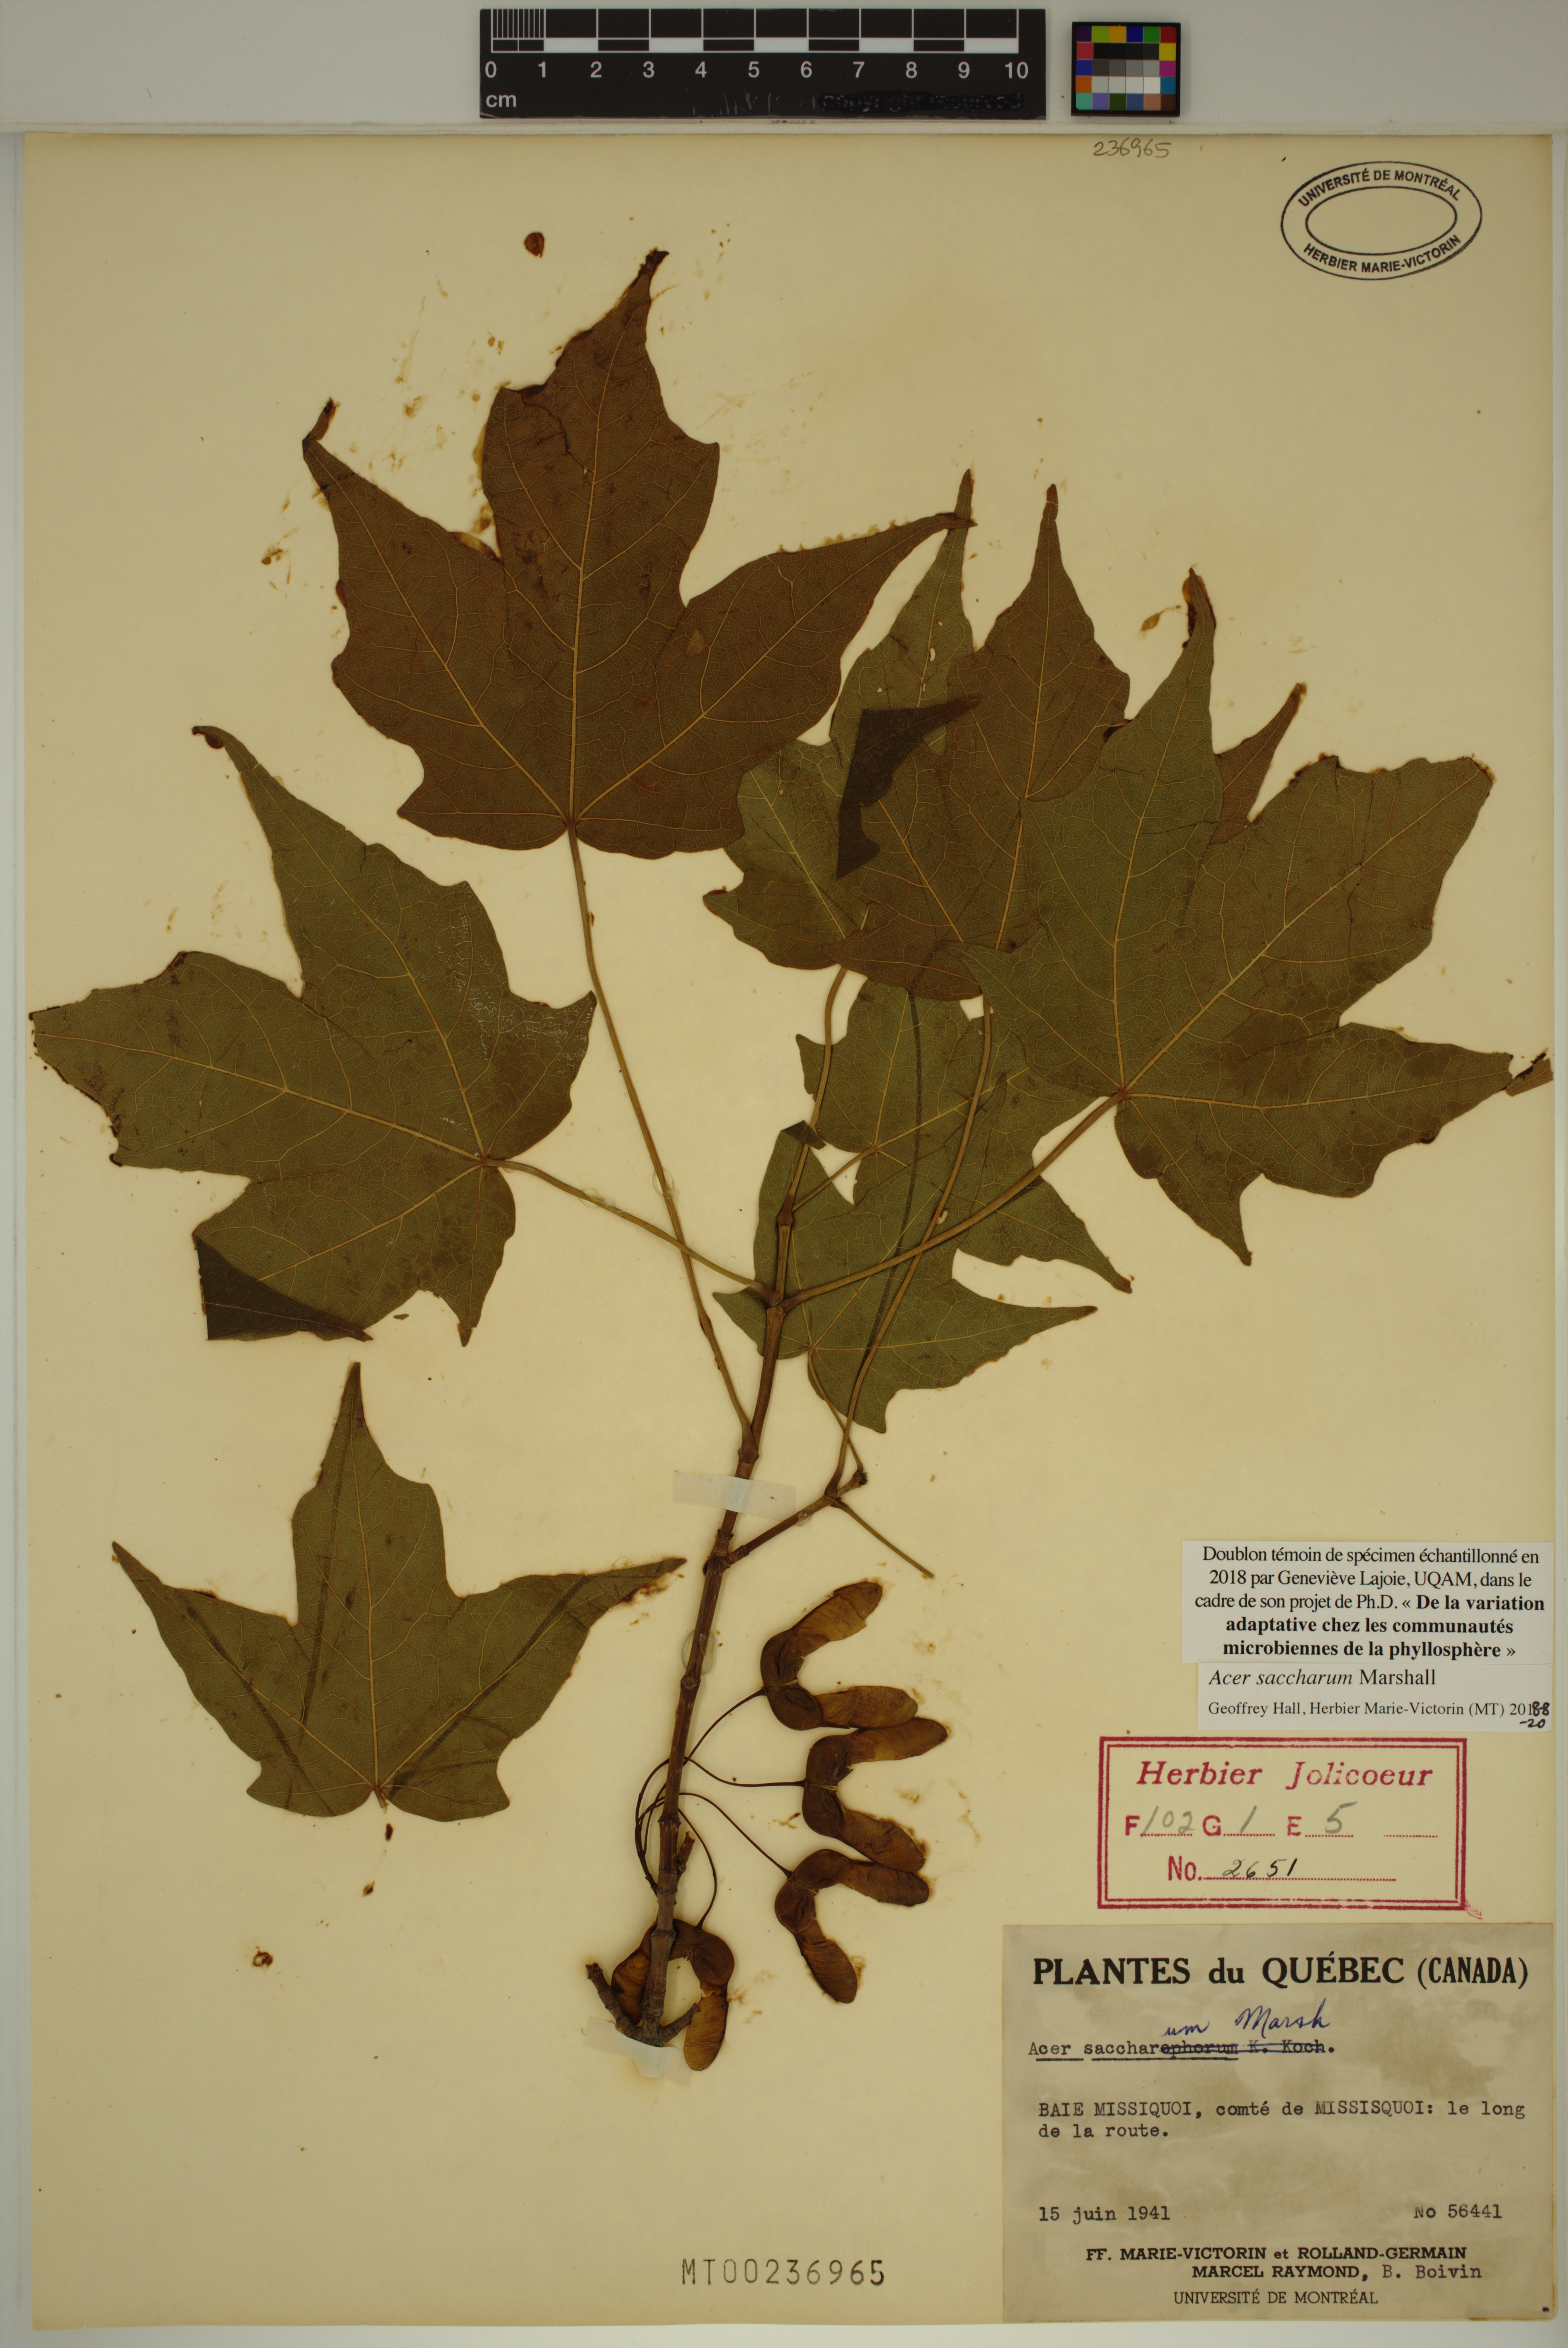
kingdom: Plantae
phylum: Tracheophyta
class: Magnoliopsida
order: Sapindales
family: Sapindaceae
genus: Acer
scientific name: Acer saccharum
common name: Sugar maple
